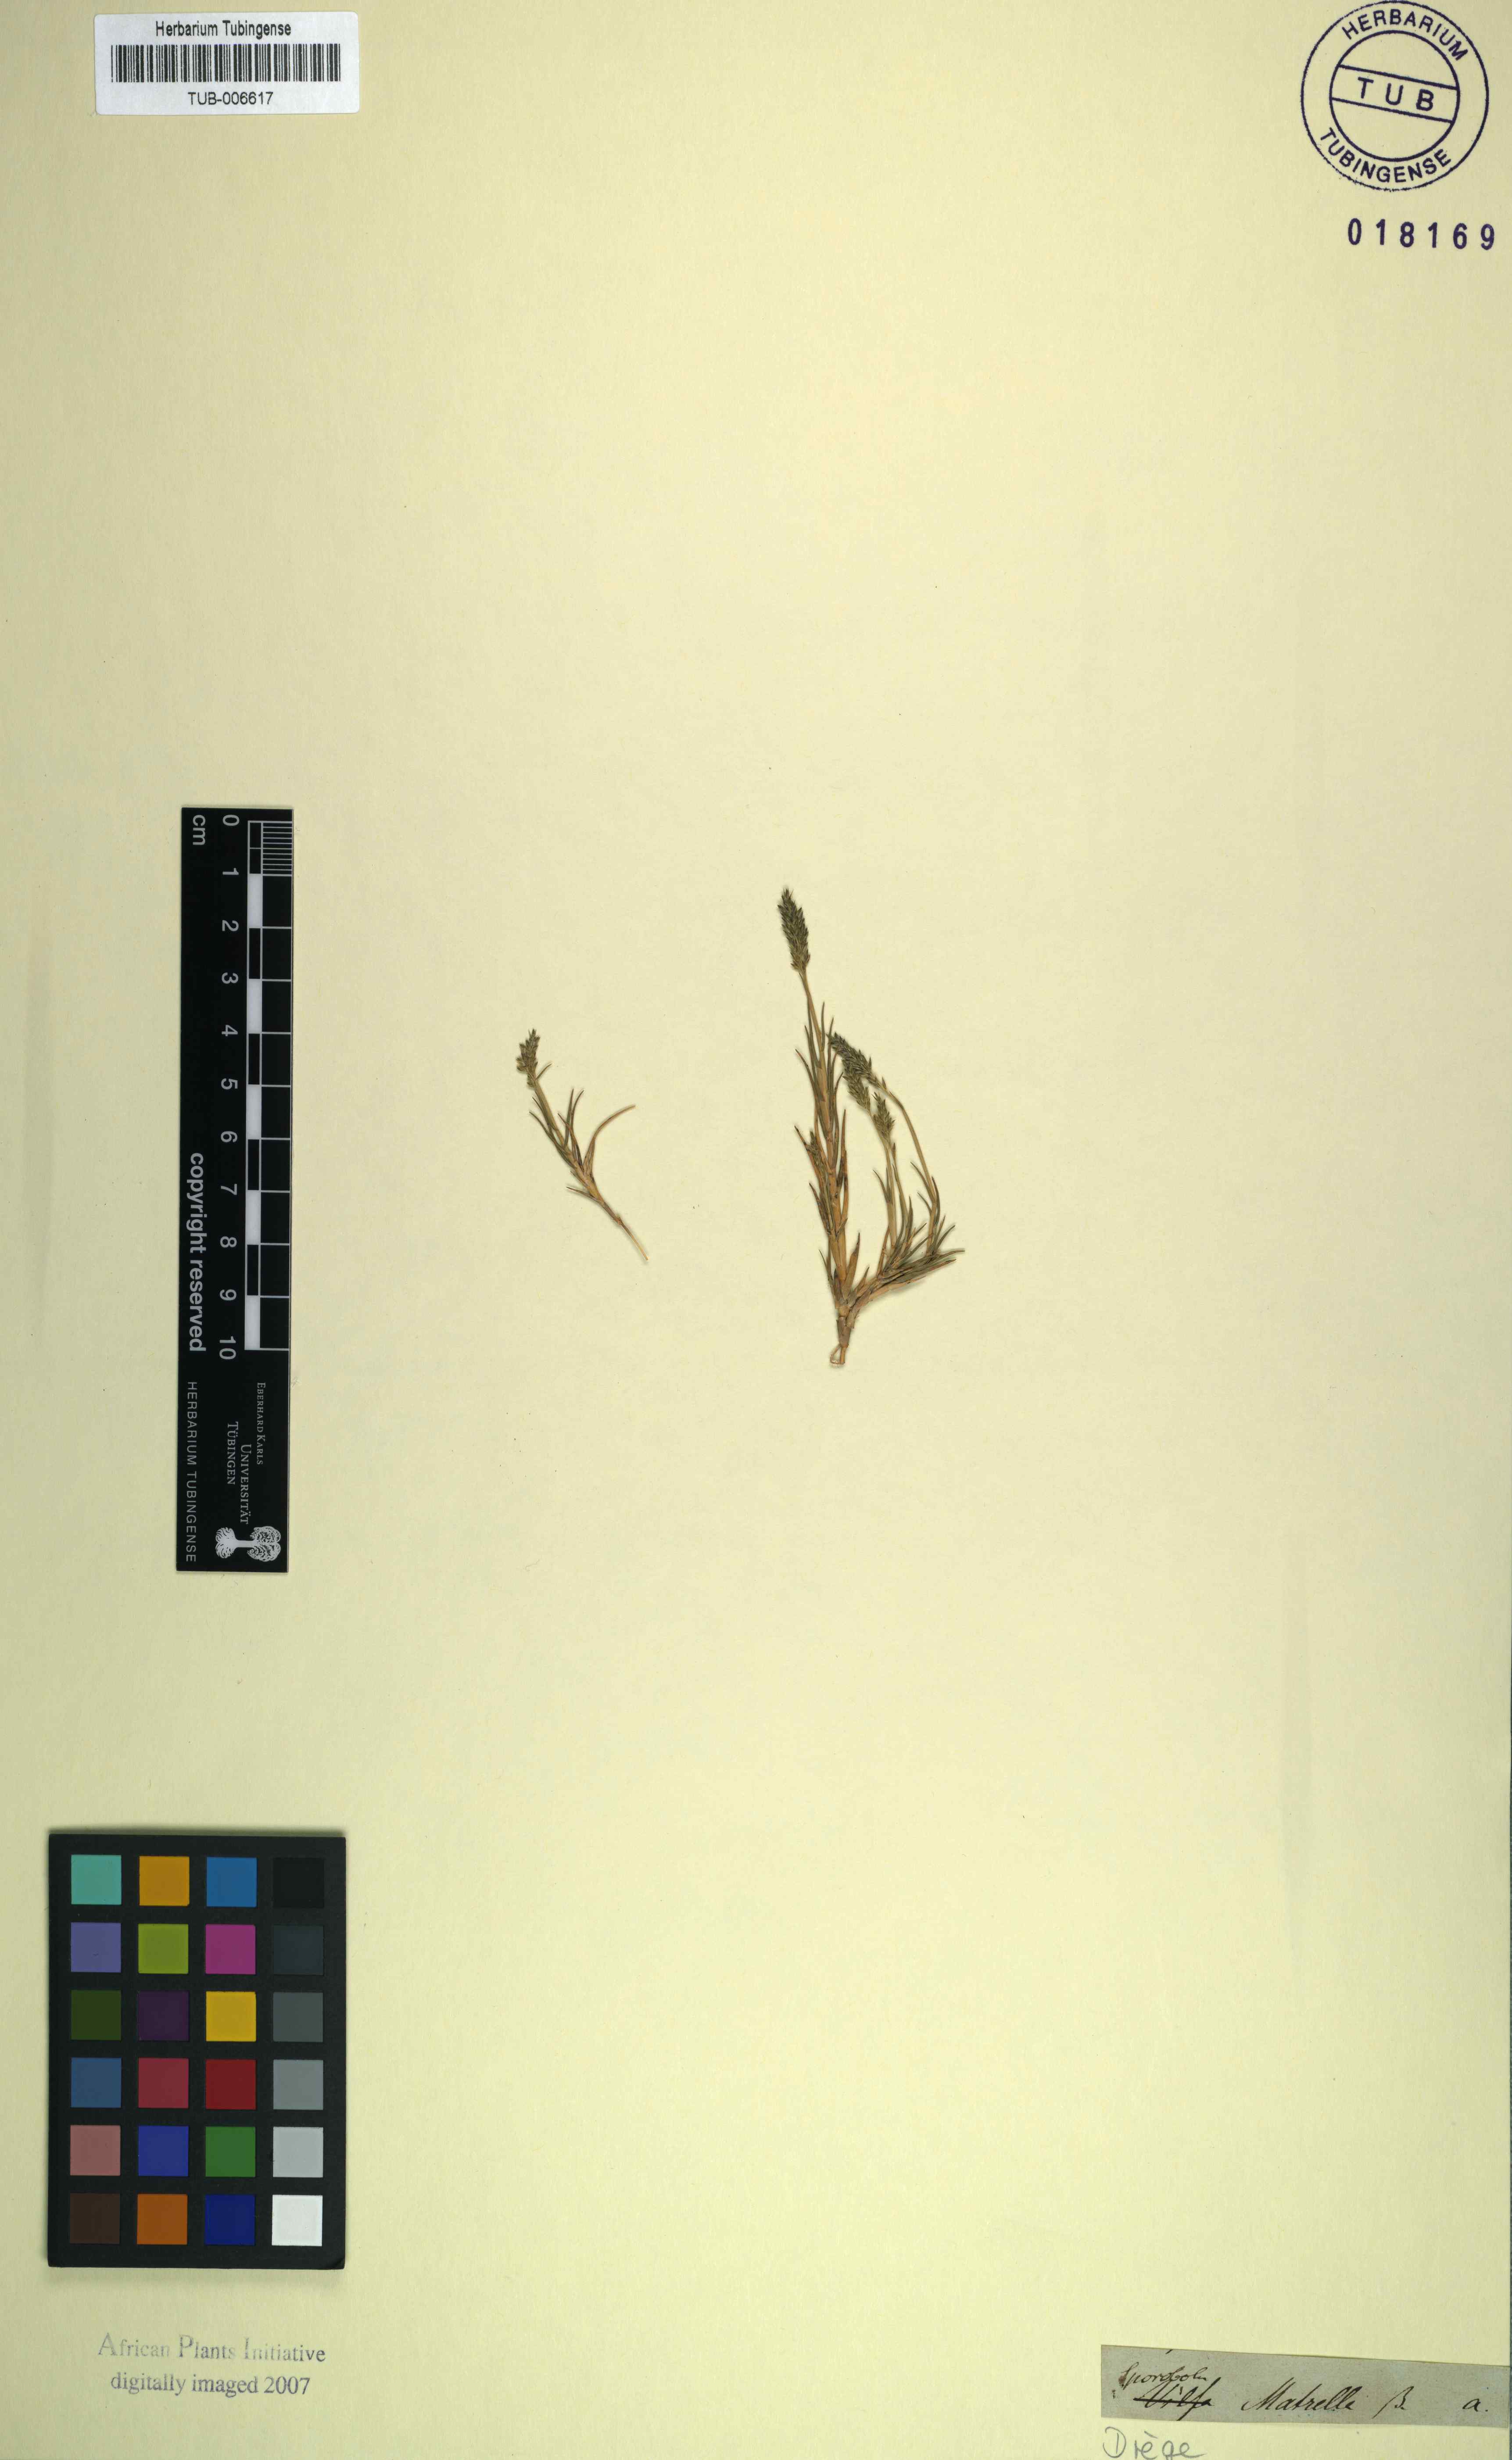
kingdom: Plantae
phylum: Tracheophyta
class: Liliopsida
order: Poales
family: Poaceae
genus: Sporobolus
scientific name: Sporobolus virginicus
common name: Beach dropseed
